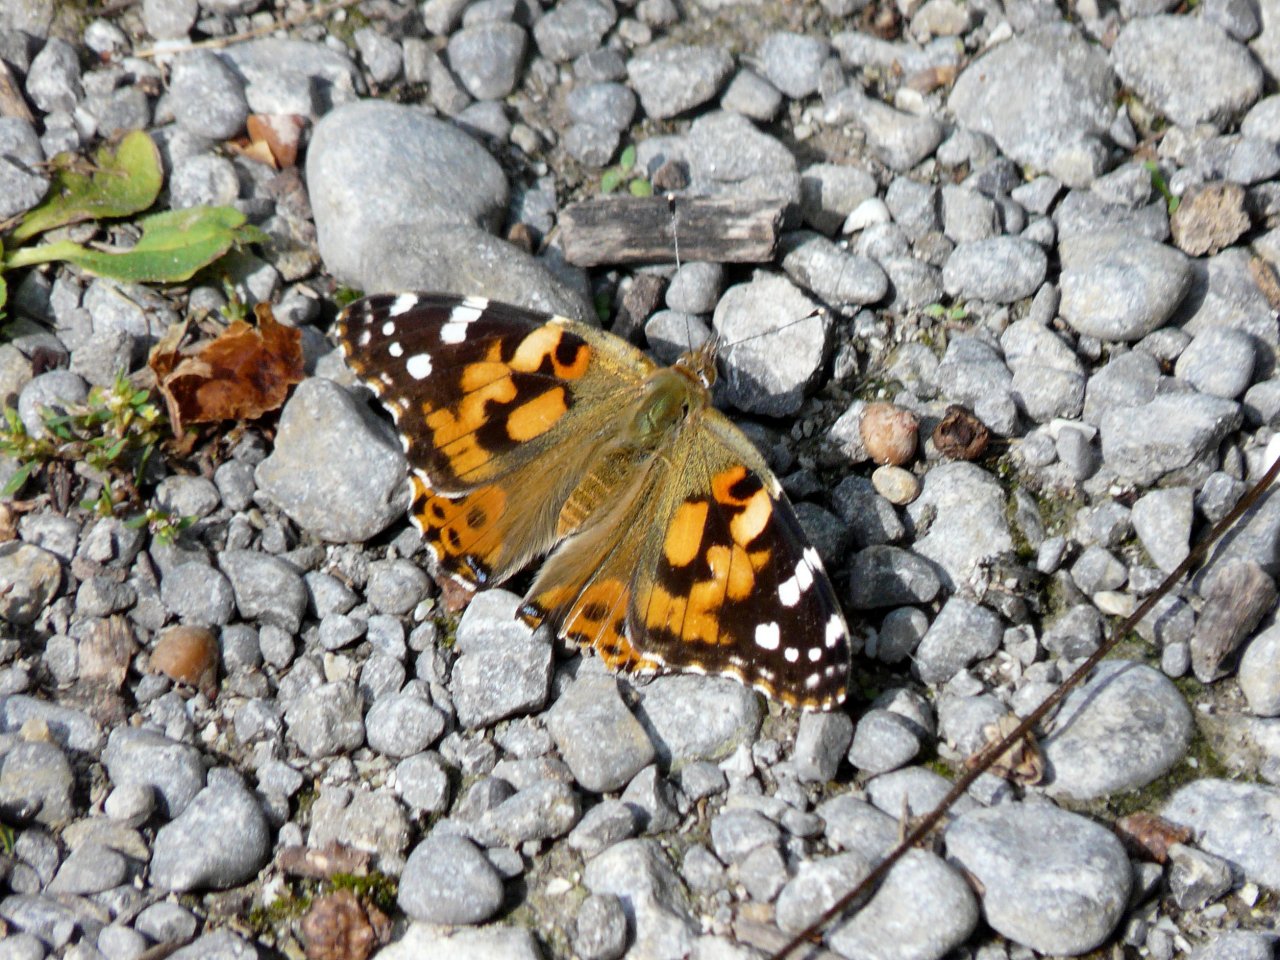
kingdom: Animalia
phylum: Arthropoda
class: Insecta
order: Lepidoptera
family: Nymphalidae
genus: Vanessa
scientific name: Vanessa cardui
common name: Painted Lady
